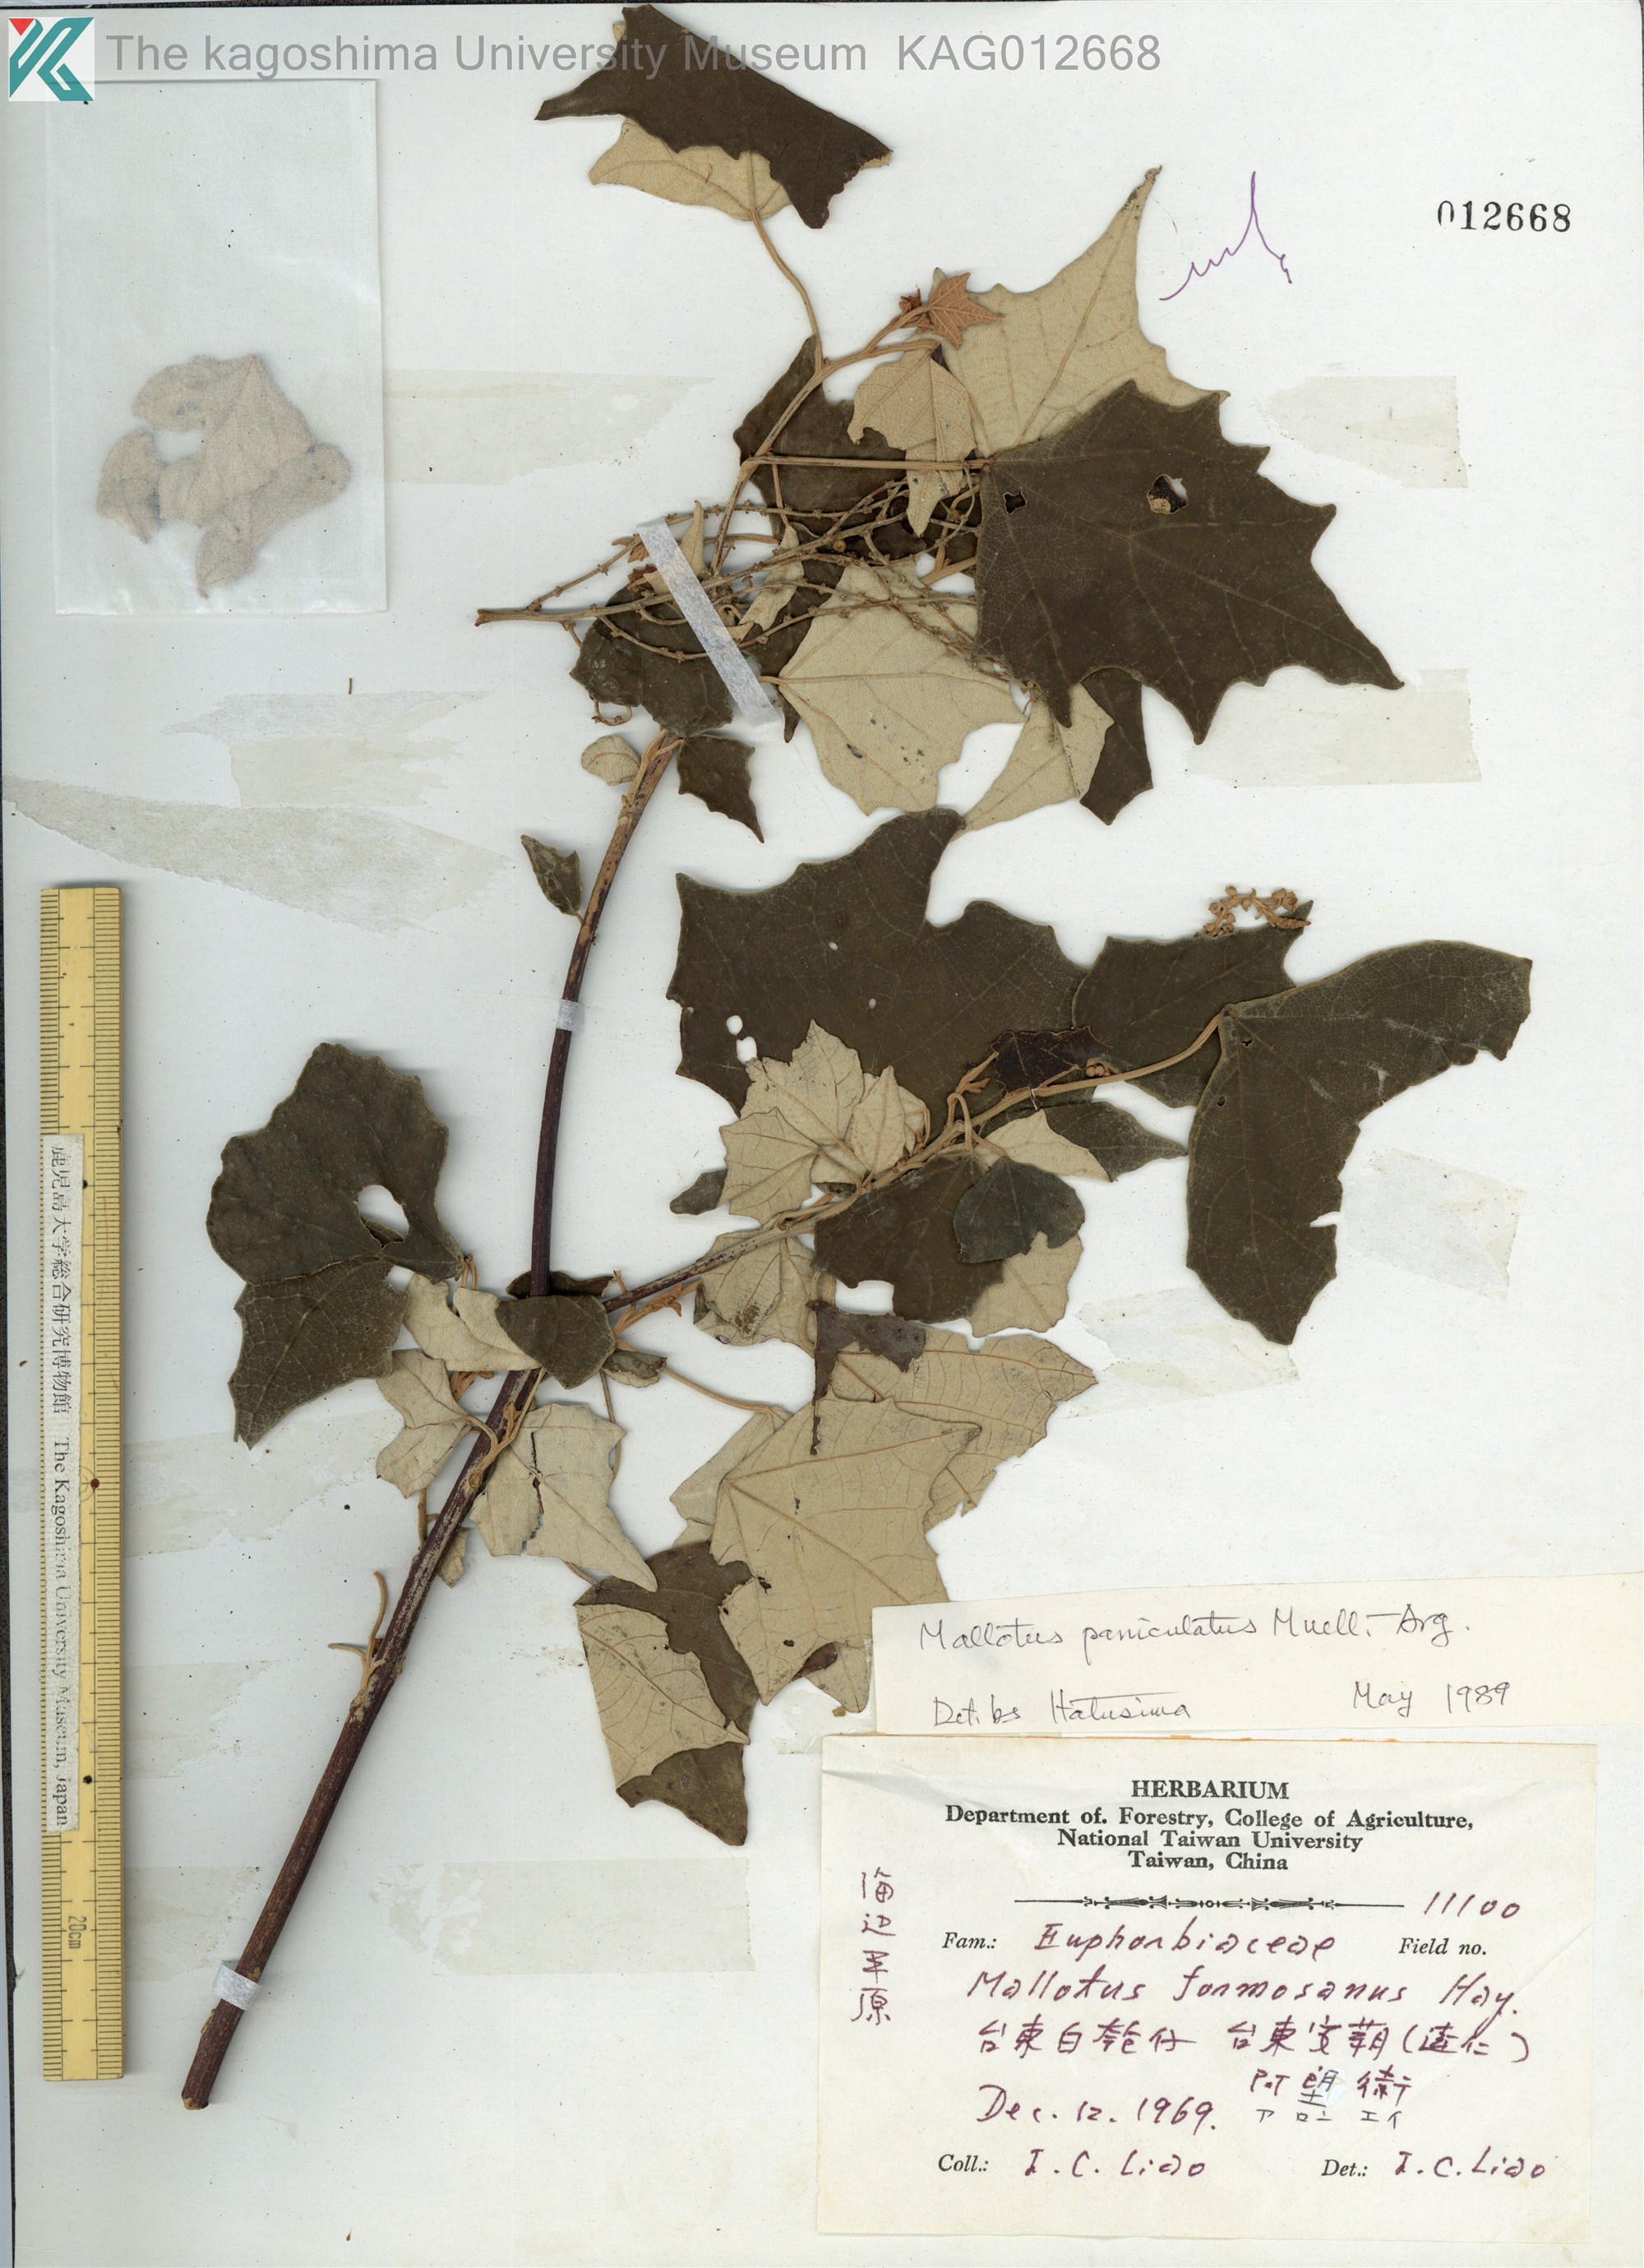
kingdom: Plantae
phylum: Tracheophyta
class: Magnoliopsida
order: Malpighiales
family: Euphorbiaceae
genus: Mallotus
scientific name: Mallotus paniculatus
